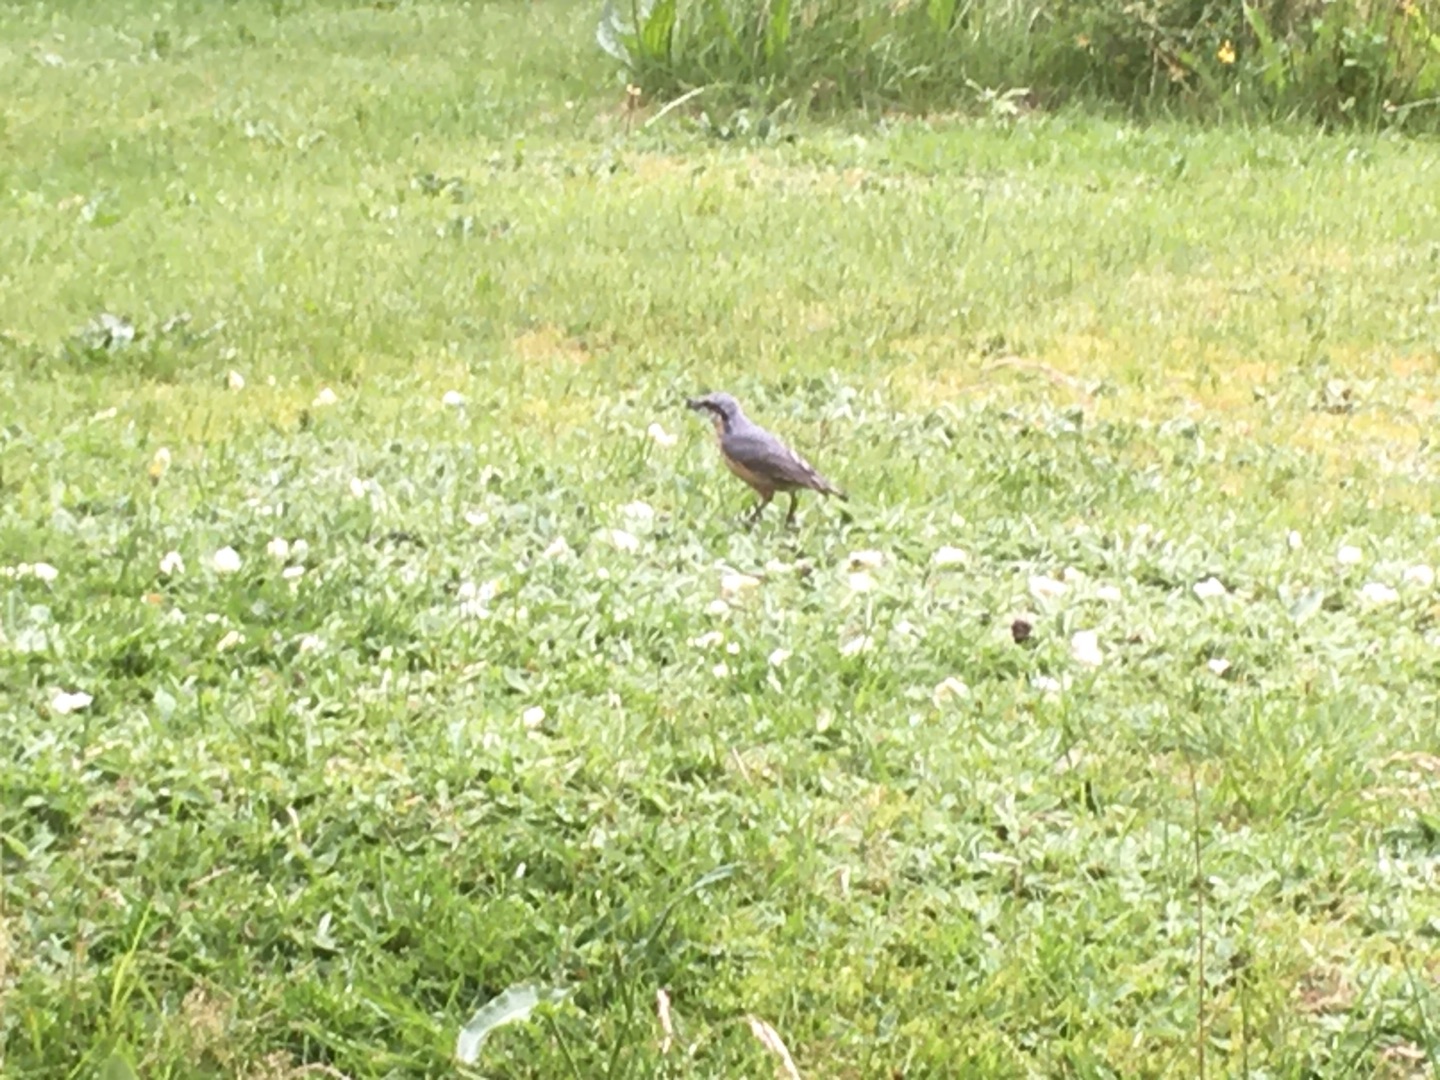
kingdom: Animalia
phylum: Chordata
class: Aves
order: Passeriformes
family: Sittidae
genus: Sitta
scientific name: Sitta europaea
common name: Spætmejse
